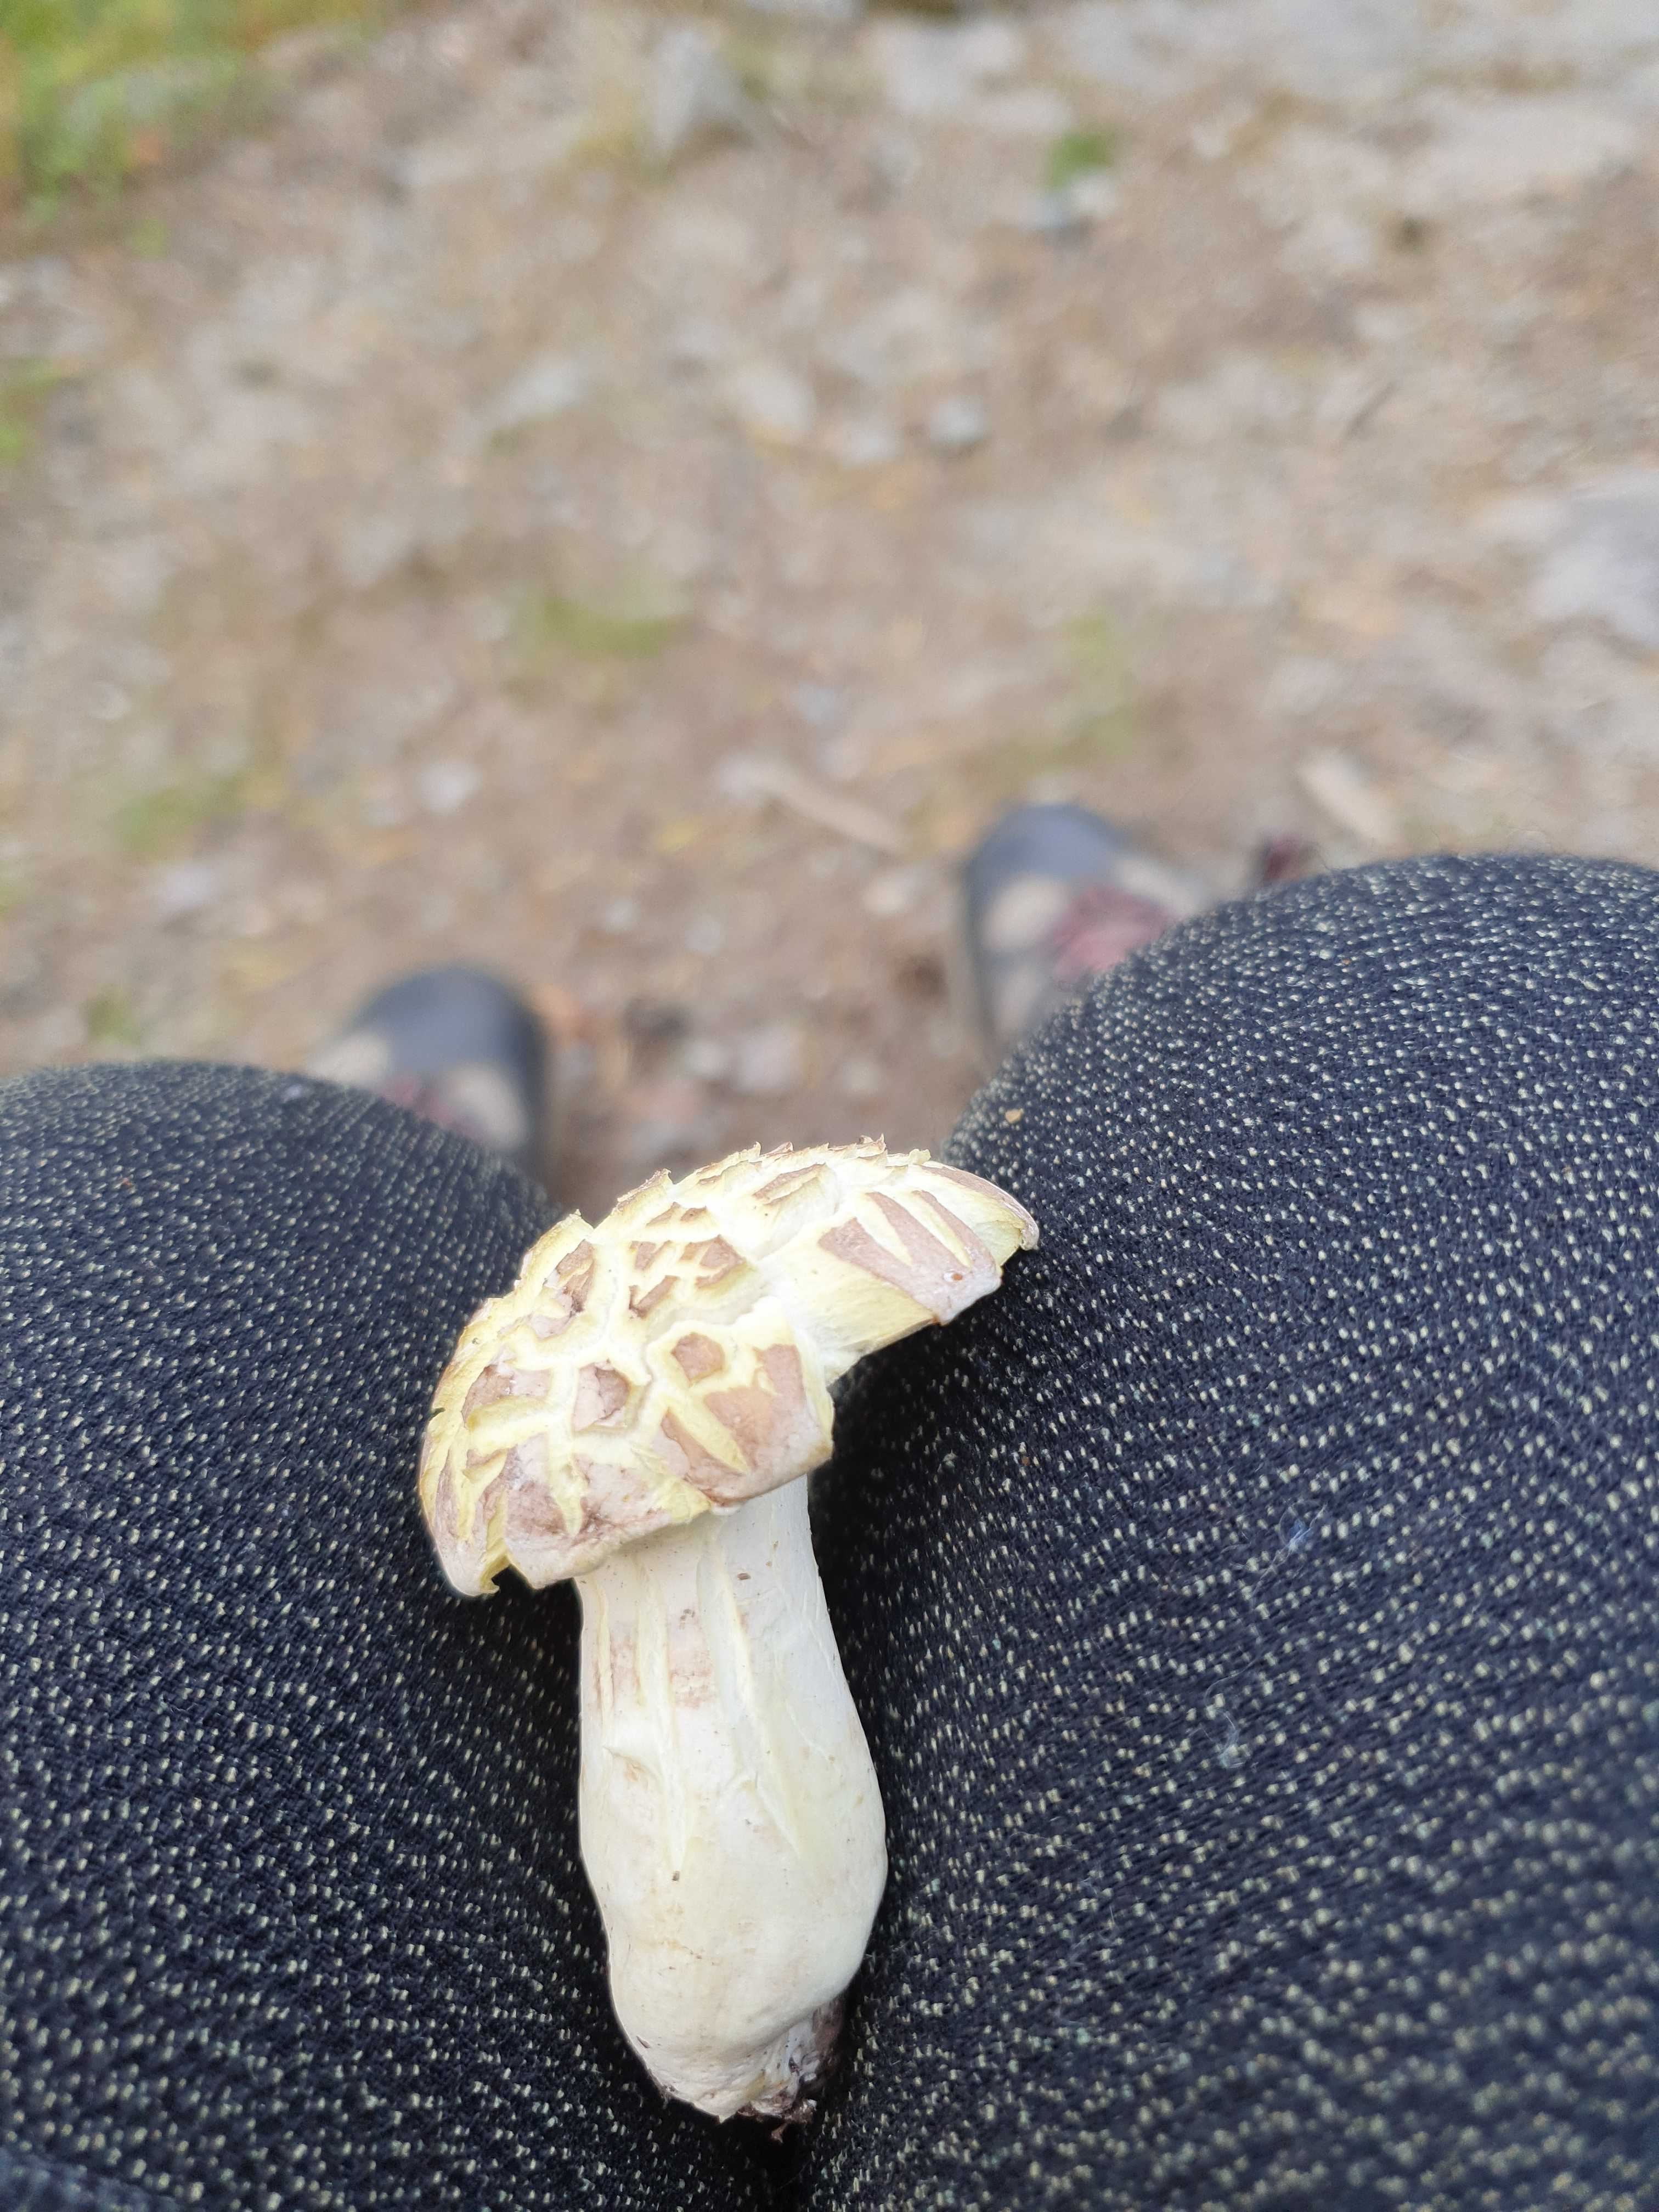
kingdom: Fungi
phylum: Basidiomycota
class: Agaricomycetes
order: Russulales
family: Albatrellaceae
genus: Albatrellus
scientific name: Albatrellus ovinus
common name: hvidlig fåreporesvamp
